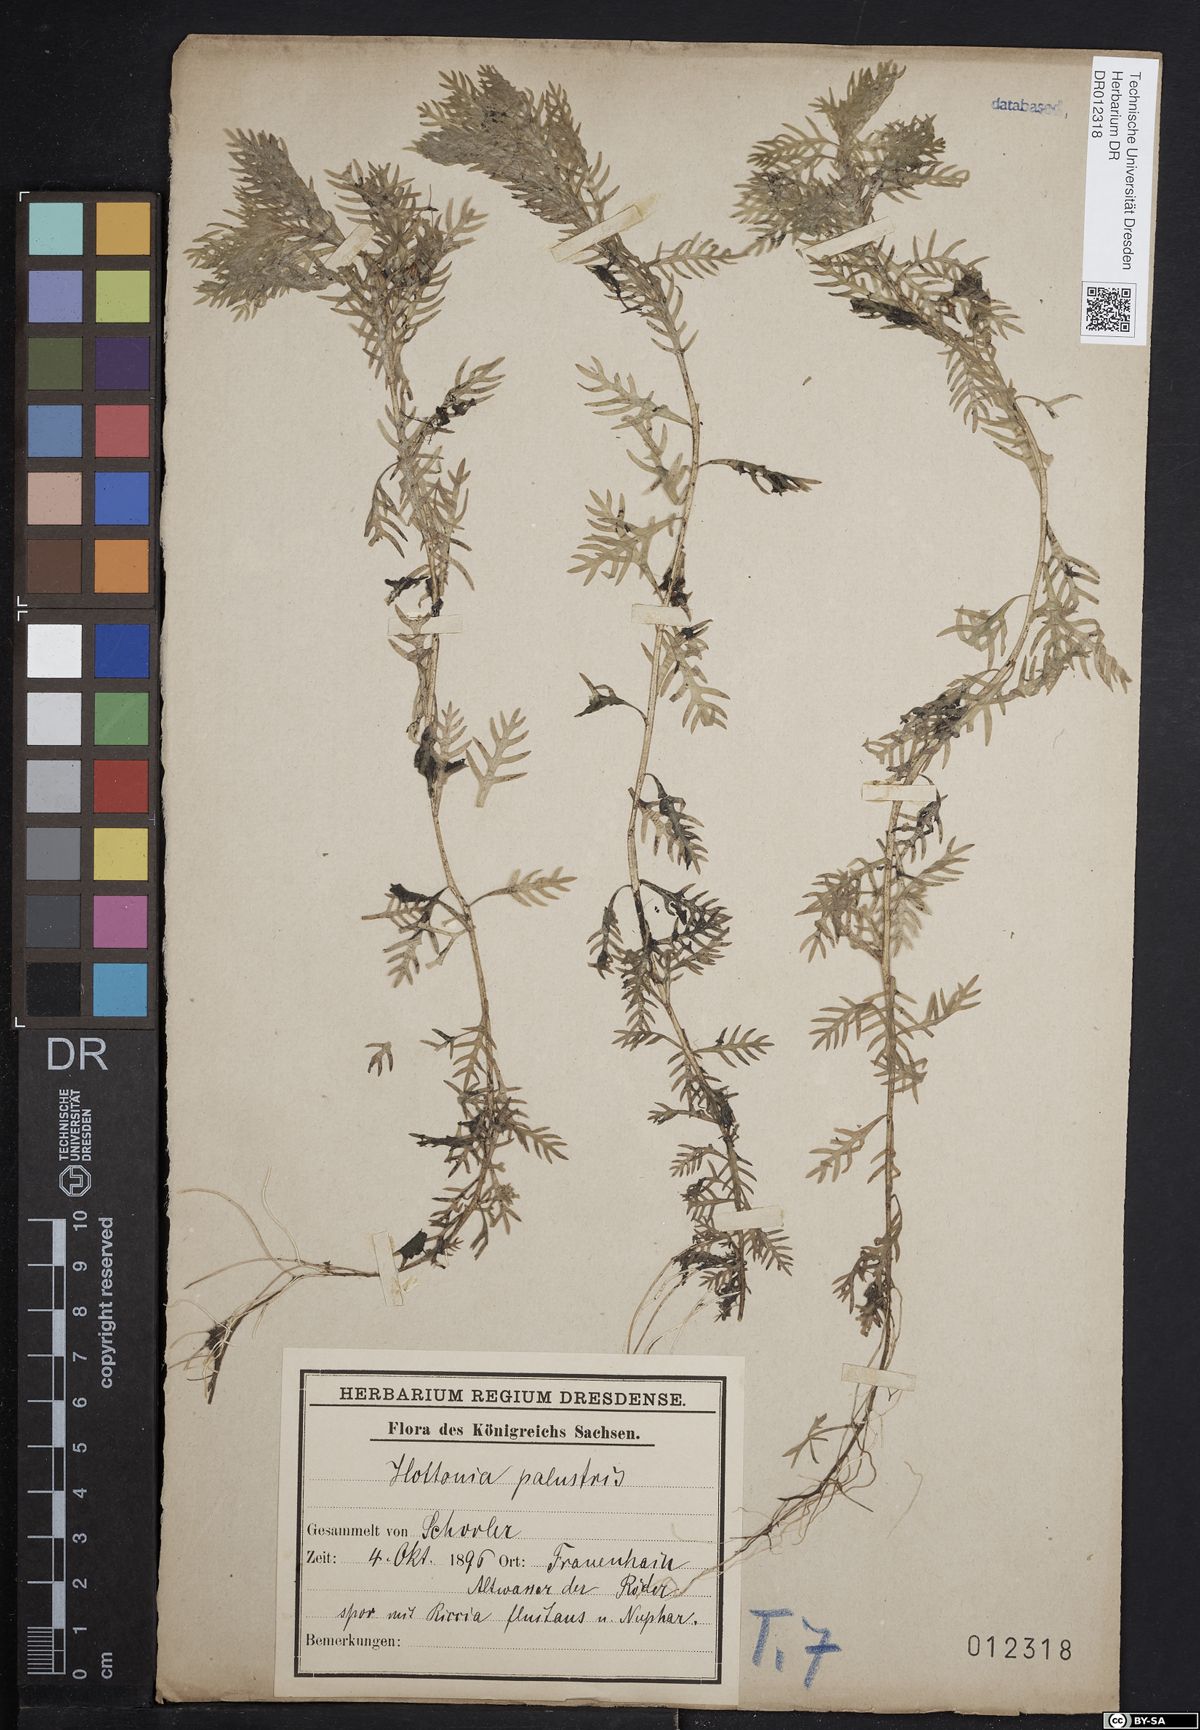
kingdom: Plantae
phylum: Tracheophyta
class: Magnoliopsida
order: Ericales
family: Primulaceae
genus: Hottonia
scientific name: Hottonia palustris
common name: Water-violet
